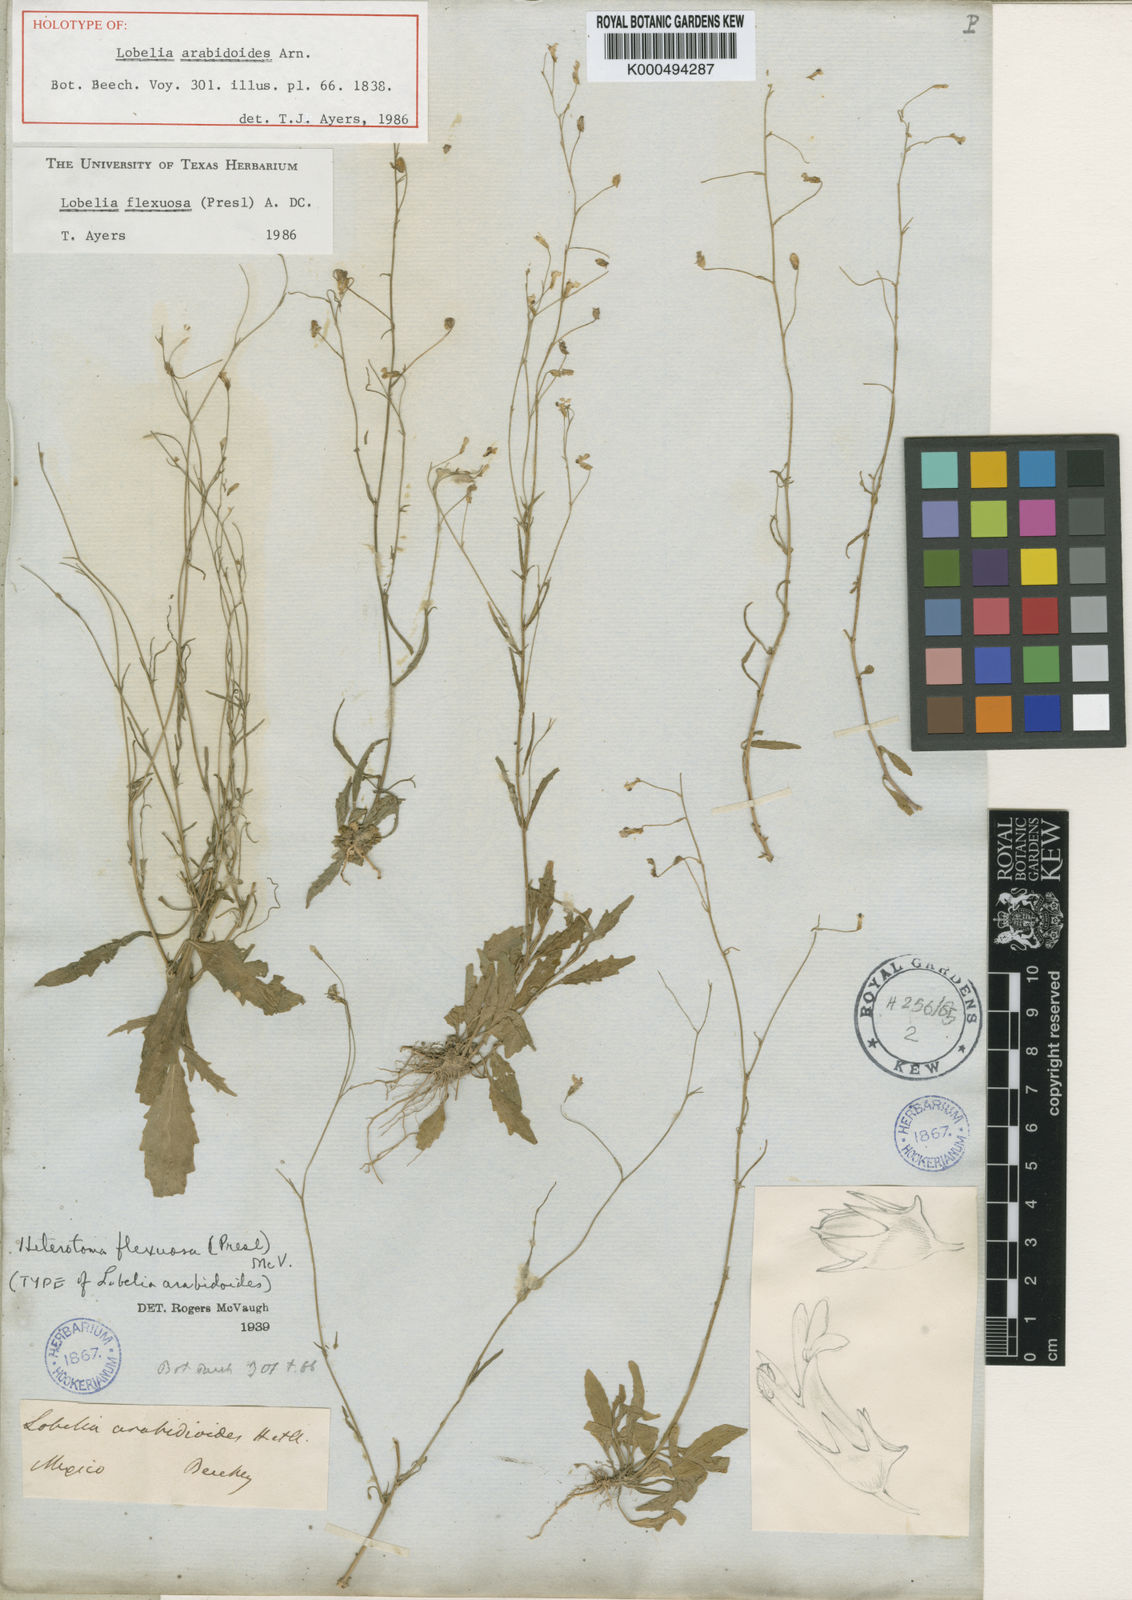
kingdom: Plantae
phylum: Tracheophyta
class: Magnoliopsida
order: Asterales
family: Campanulaceae
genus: Lobelia
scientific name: Lobelia flexuosa
